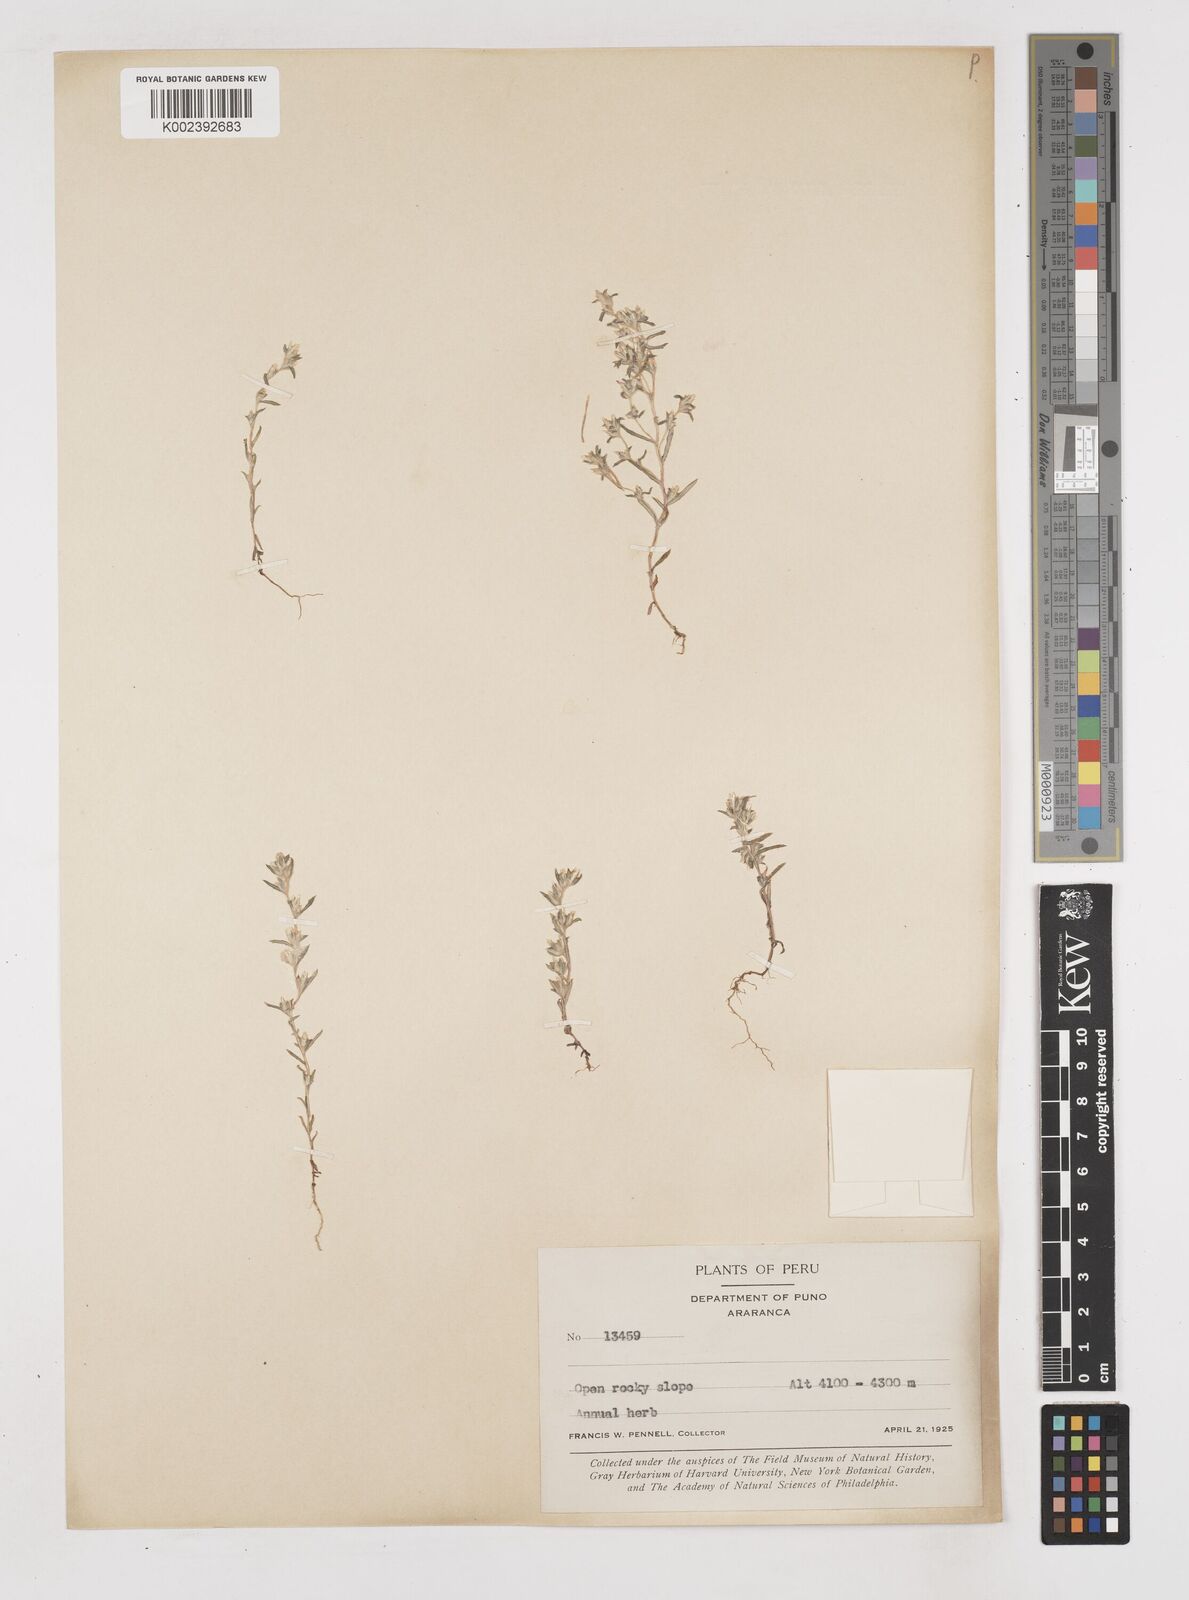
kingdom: Plantae
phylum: Tracheophyta
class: Magnoliopsida
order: Asterales
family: Asteraceae
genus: Gnaphalium
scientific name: Gnaphalium
